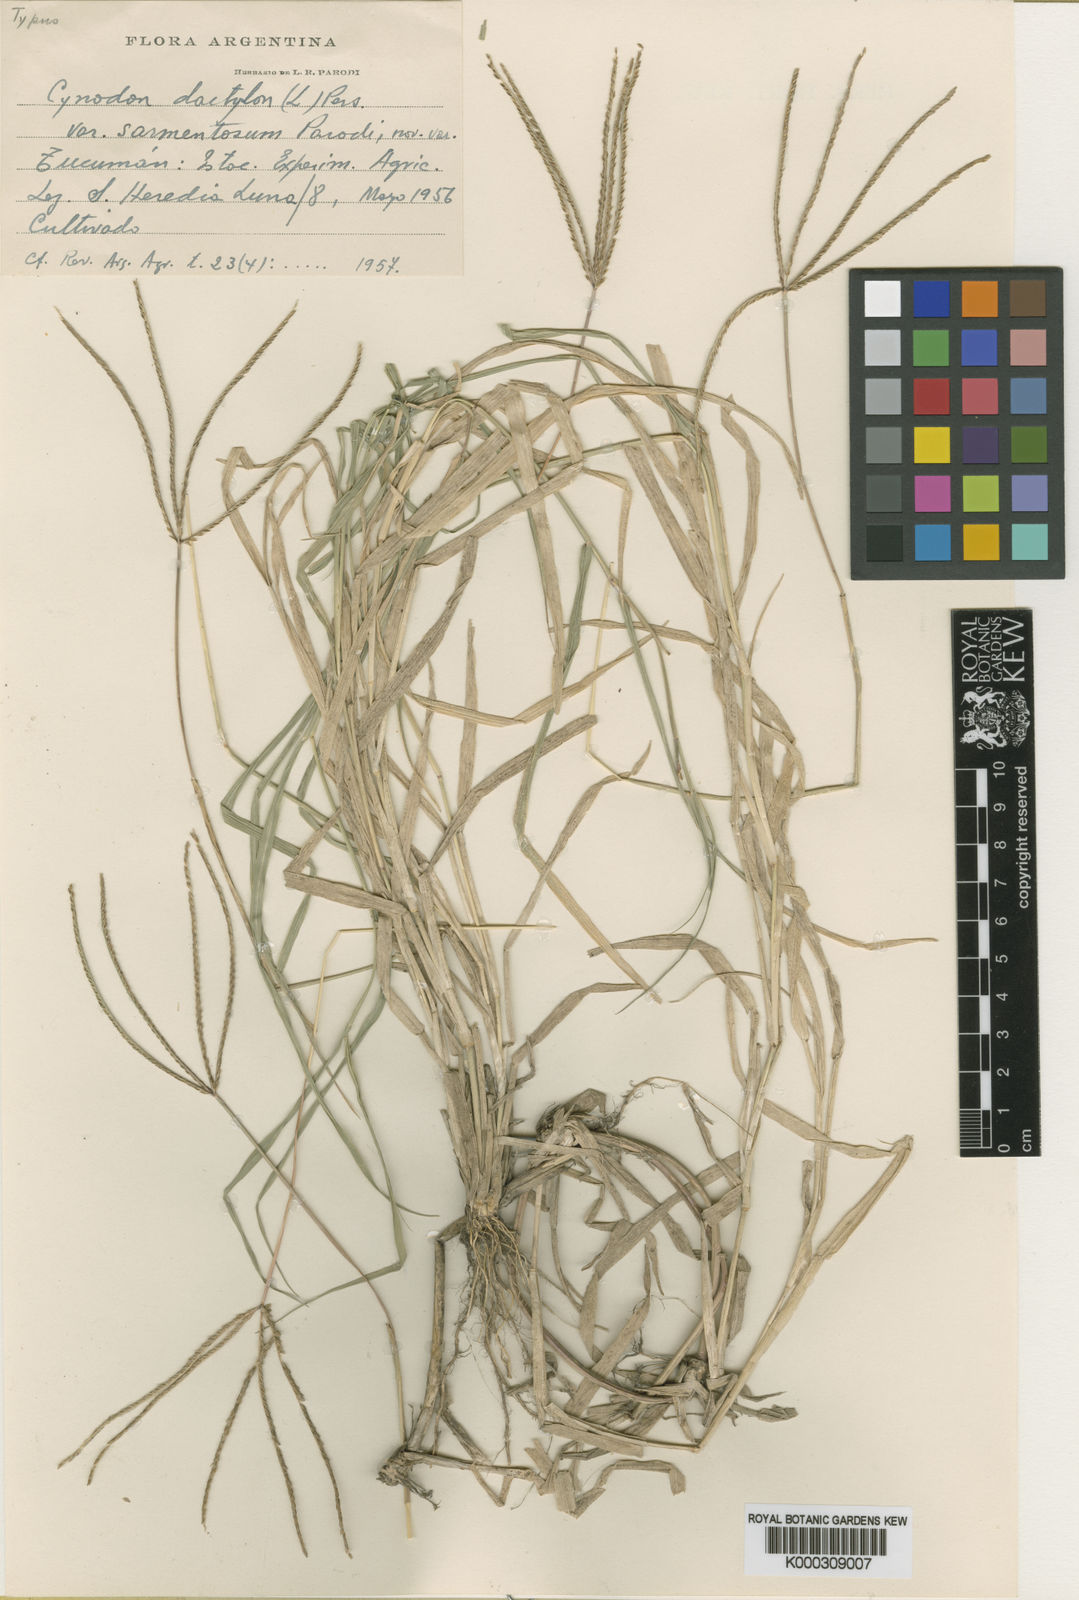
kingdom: Plantae
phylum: Tracheophyta
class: Liliopsida
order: Poales
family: Poaceae
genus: Cynodon
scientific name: Cynodon dactylon
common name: Bermuda grass
